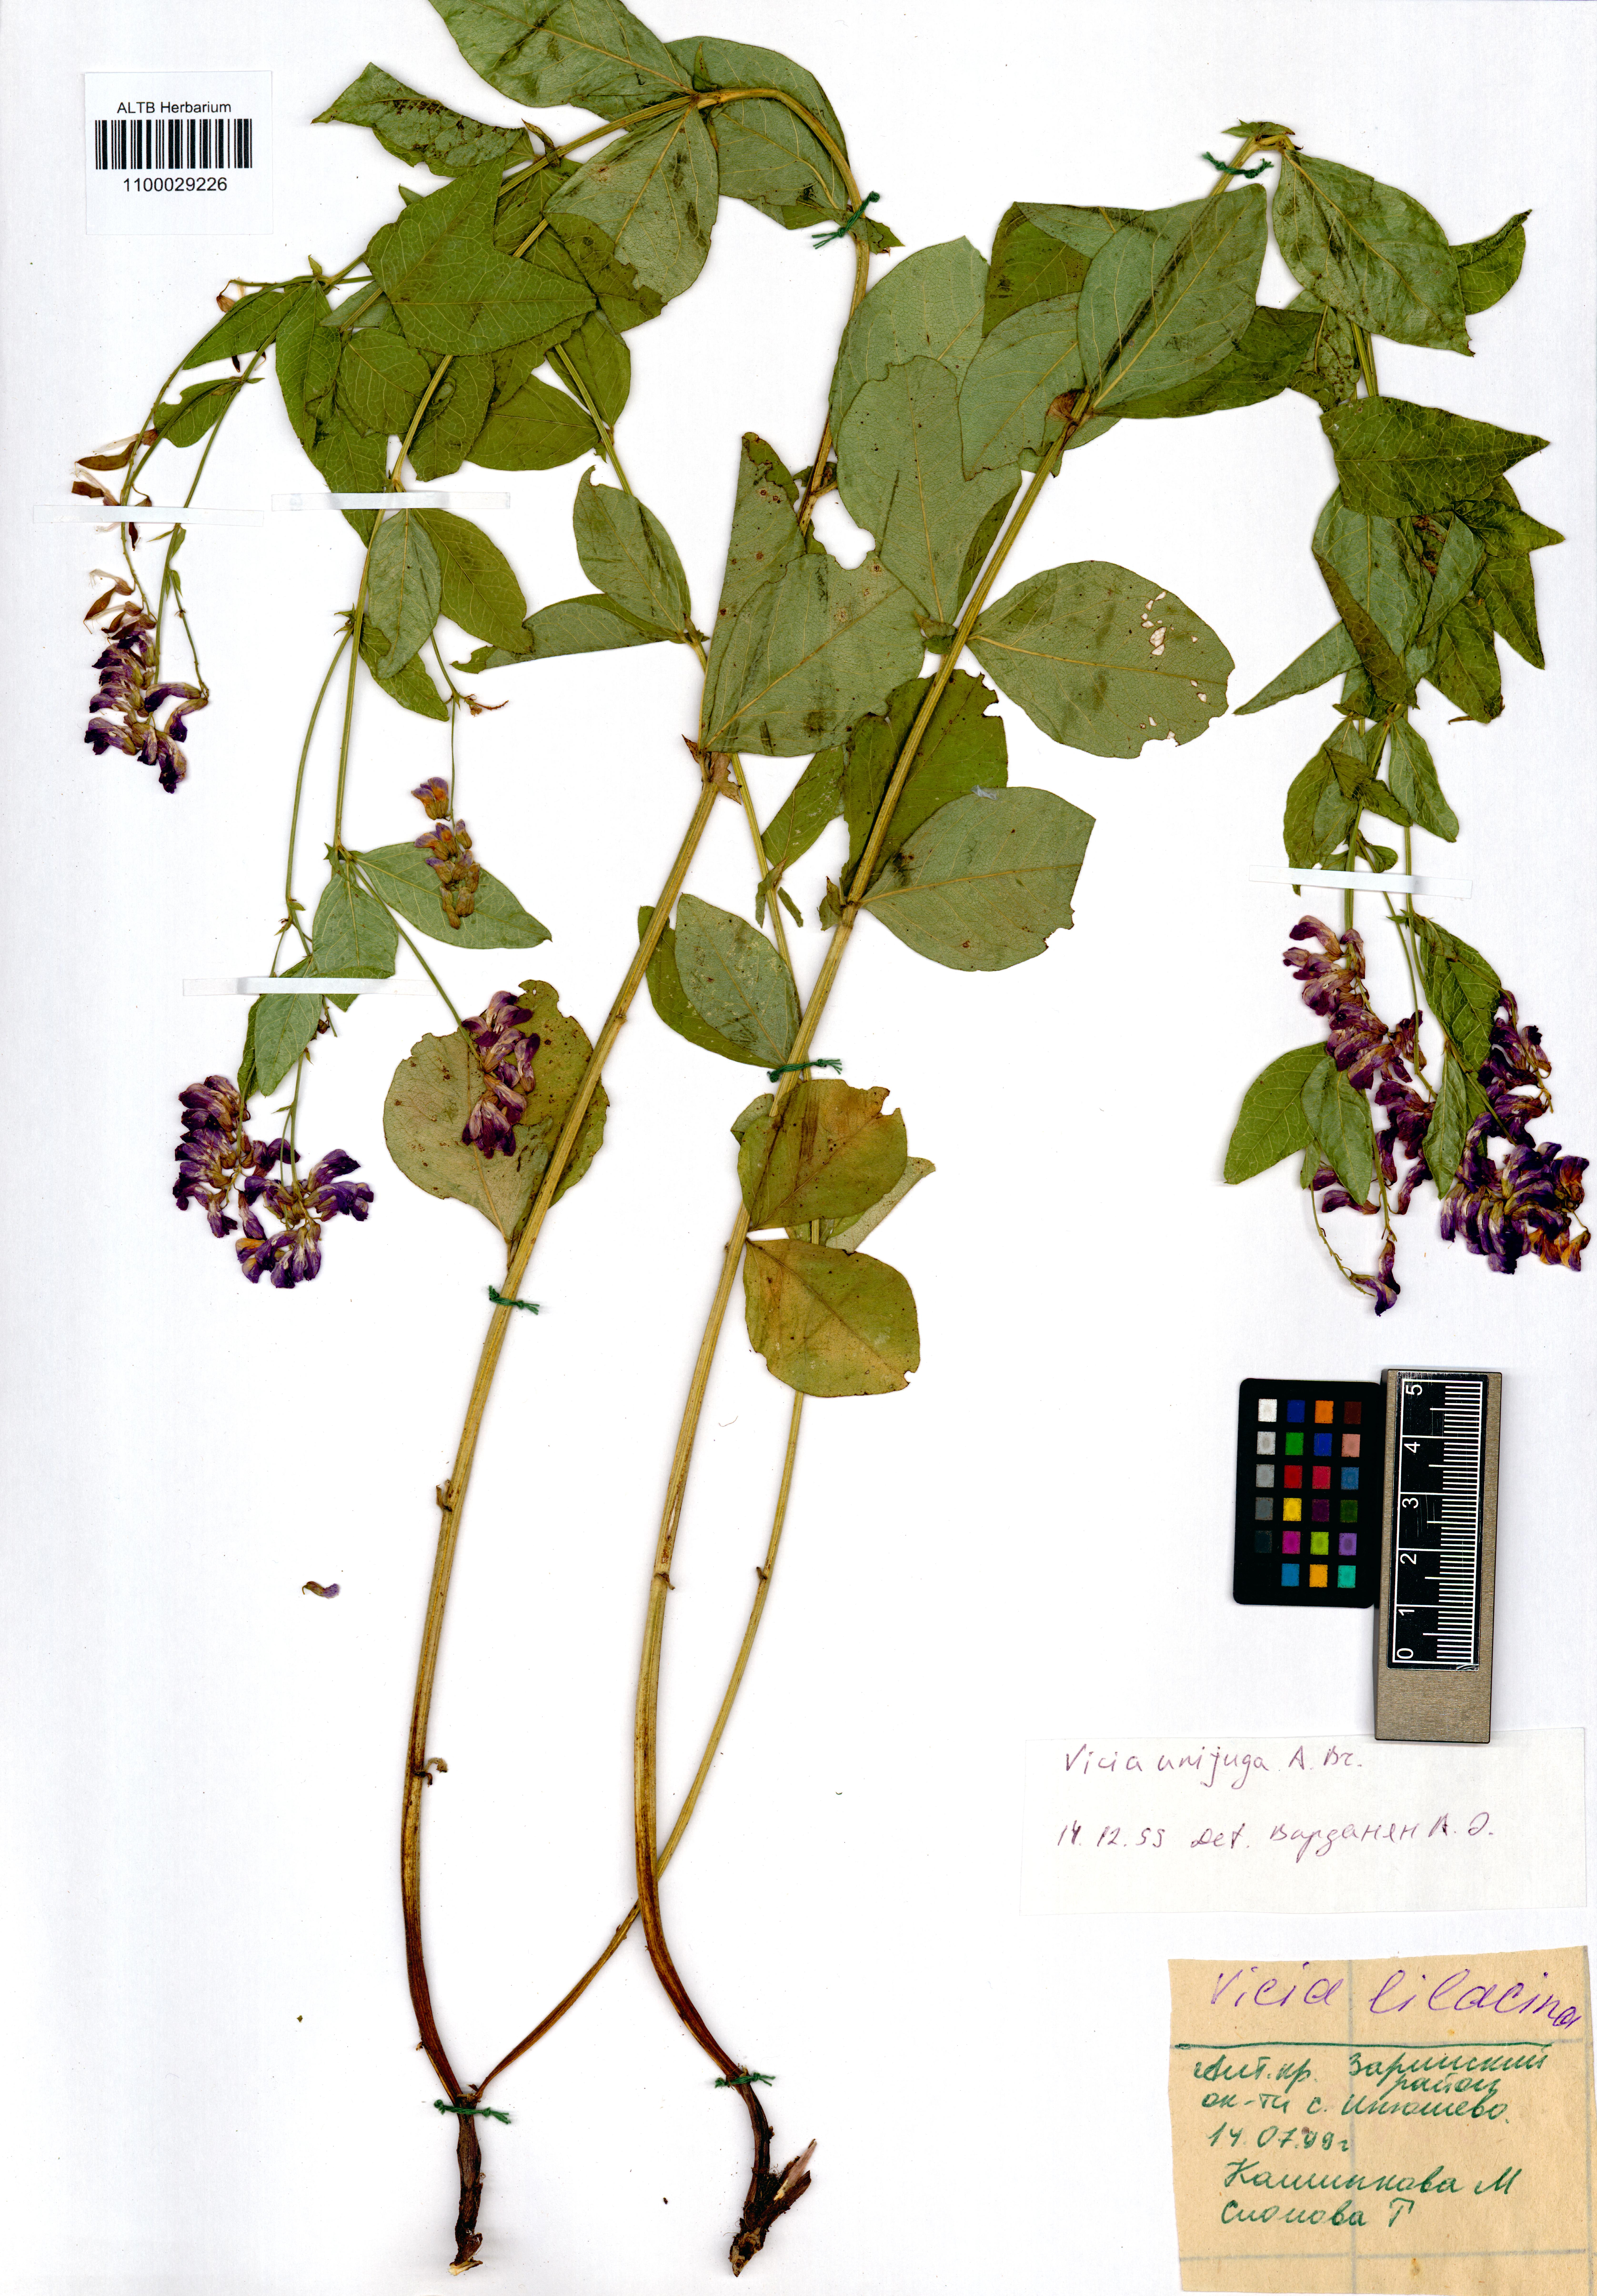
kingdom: Plantae
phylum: Tracheophyta
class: Magnoliopsida
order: Fabales
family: Fabaceae
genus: Vicia
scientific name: Vicia unijuga
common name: Two-leaf vetch
